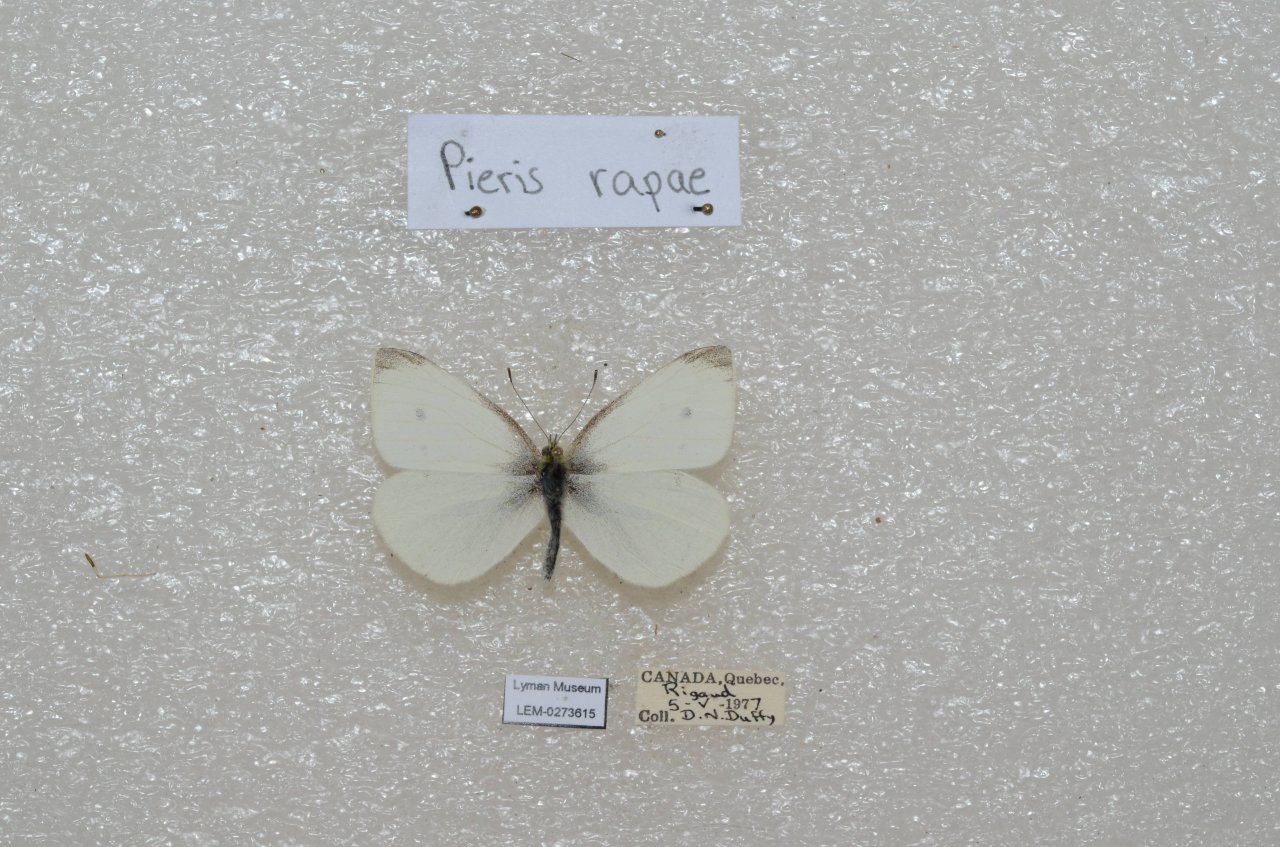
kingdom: Animalia
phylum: Arthropoda
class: Insecta
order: Lepidoptera
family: Pieridae
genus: Pieris
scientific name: Pieris rapae
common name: Cabbage White
